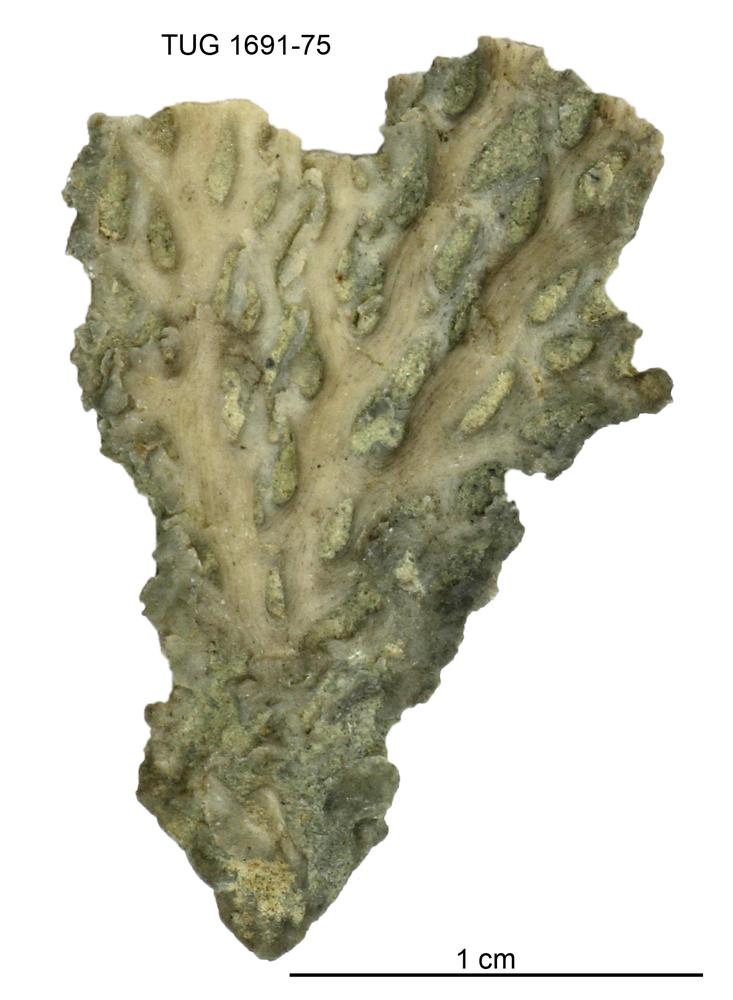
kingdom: Animalia
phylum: Bryozoa
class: Stenolaemata
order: Fenestrida
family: Phylloporinidae
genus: Aluverina
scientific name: Aluverina multiporata
